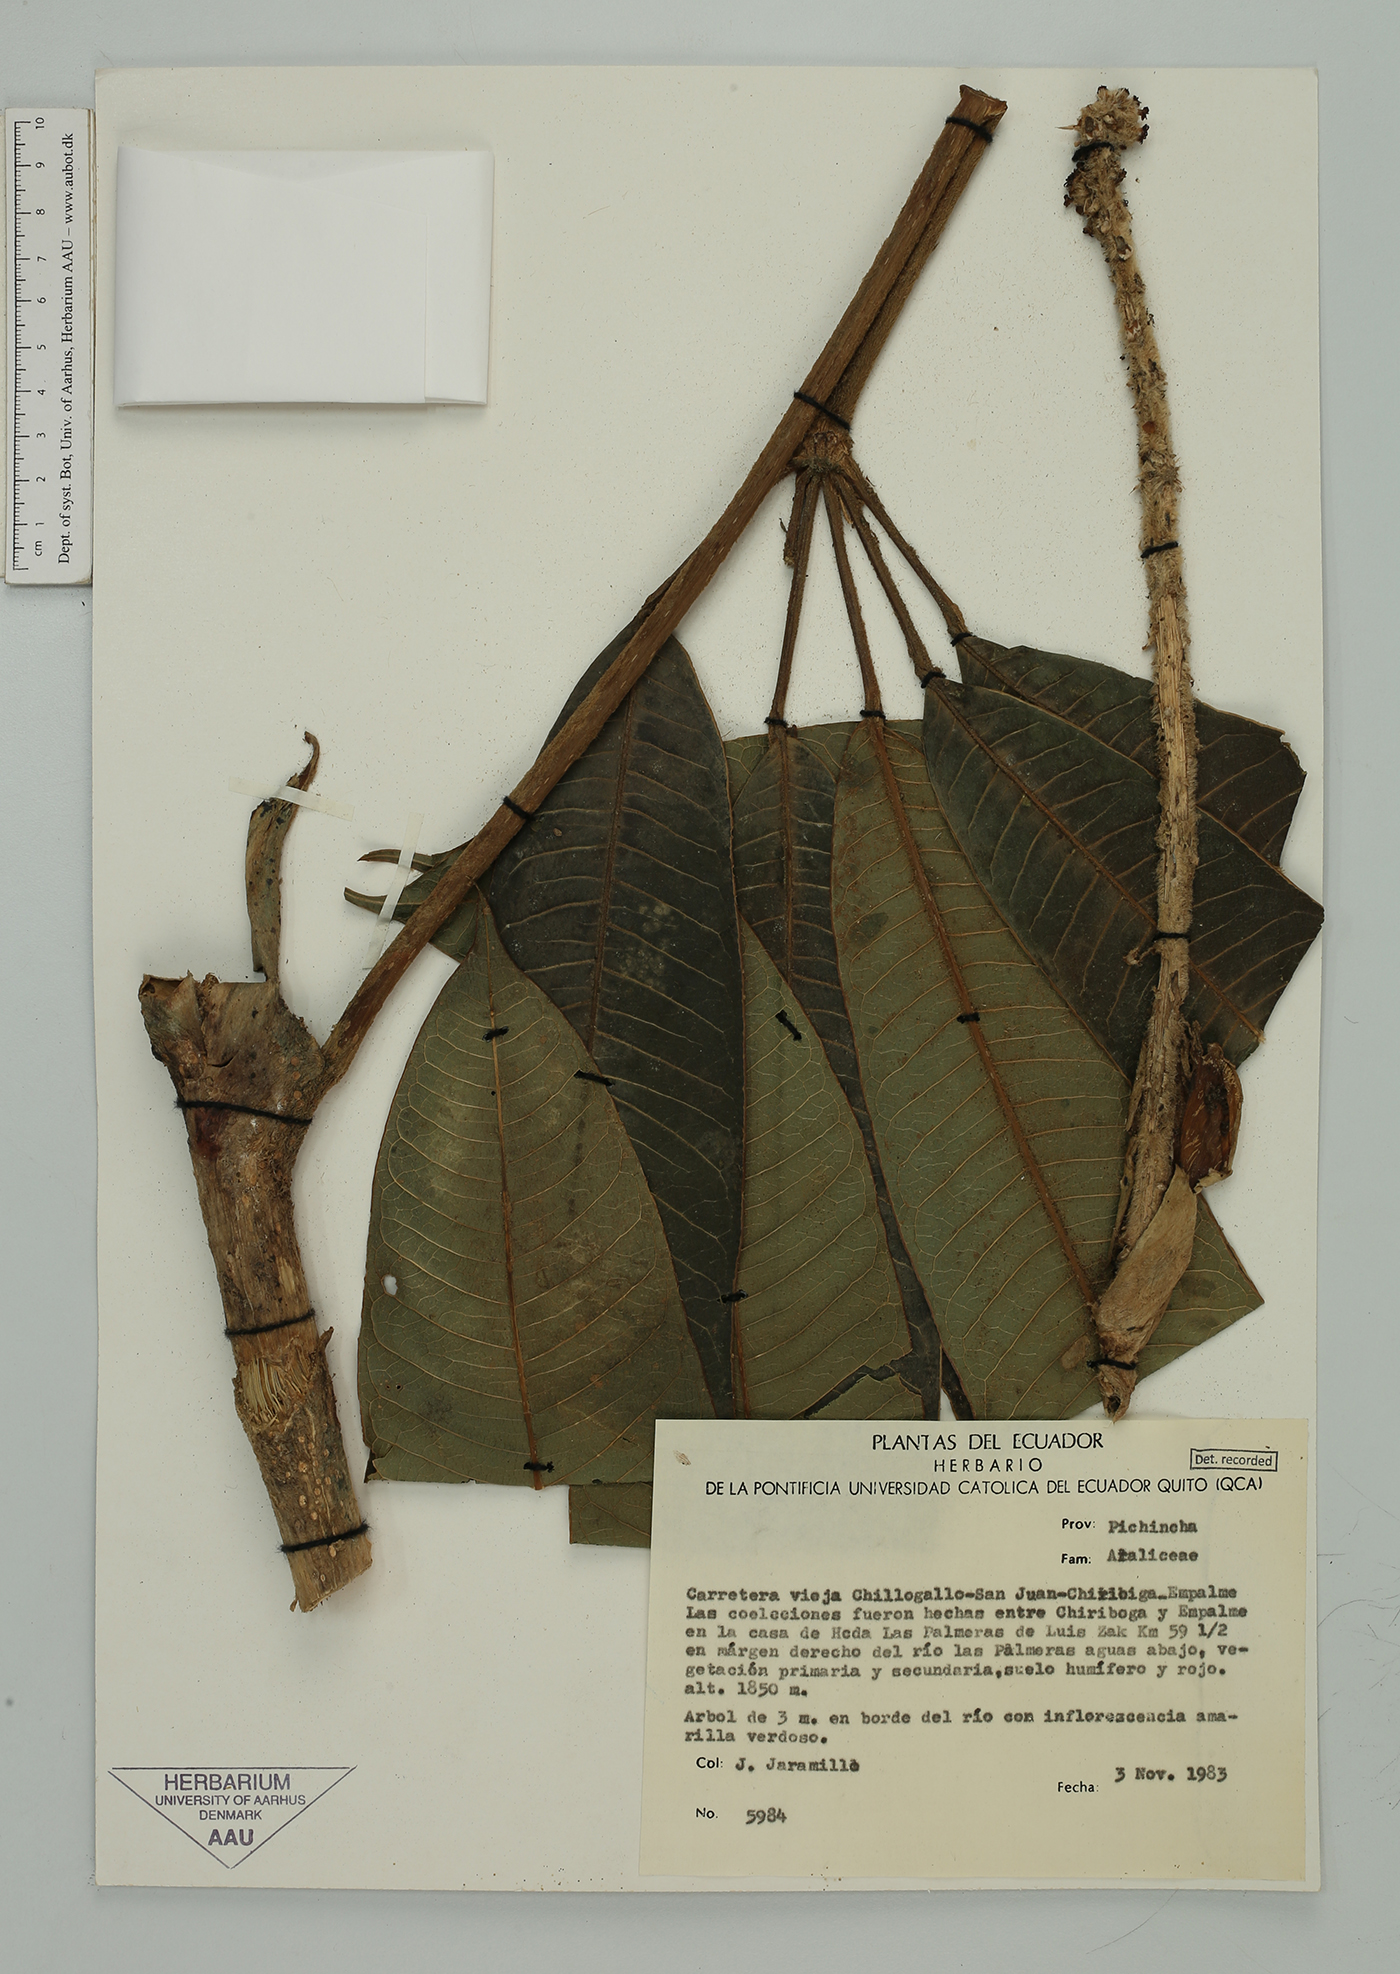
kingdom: Plantae
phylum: Tracheophyta
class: Magnoliopsida
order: Apiales
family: Araliaceae
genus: Sciodaphyllum
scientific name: Sciodaphyllum lasiogyne
